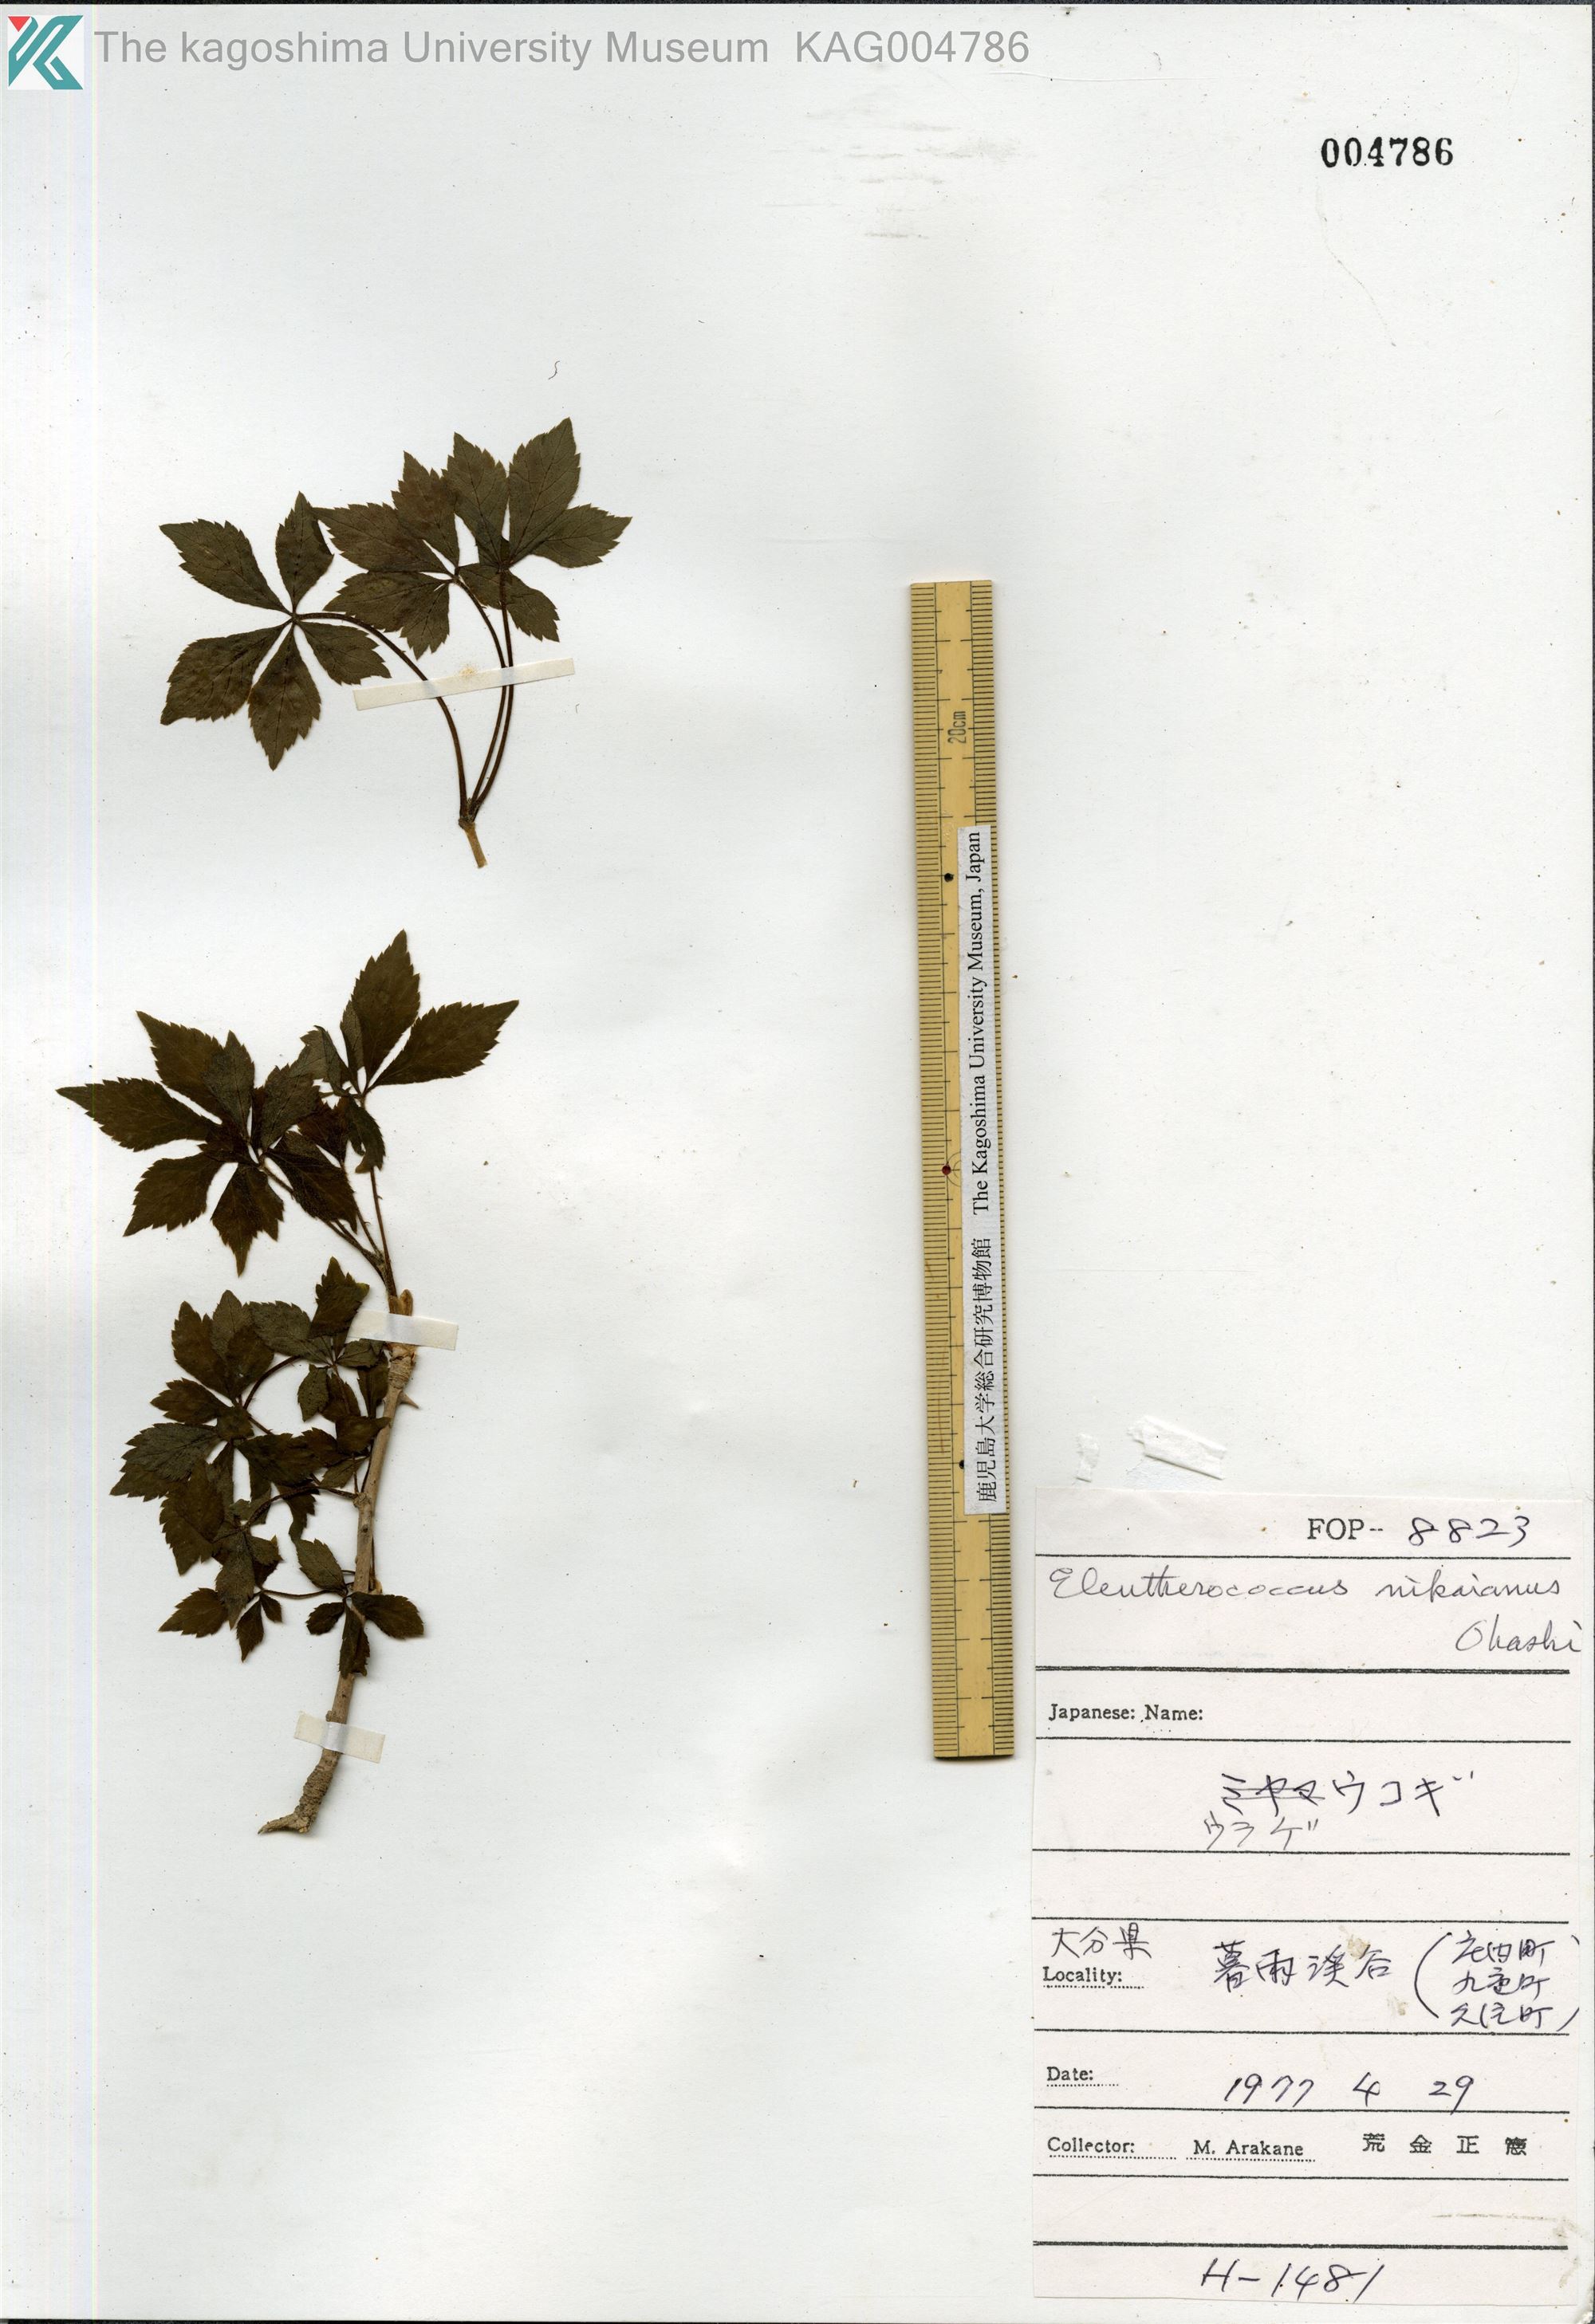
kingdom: Plantae
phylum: Tracheophyta
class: Magnoliopsida
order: Apiales
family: Araliaceae
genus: Eleutherococcus
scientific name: Eleutherococcus nikaianus
